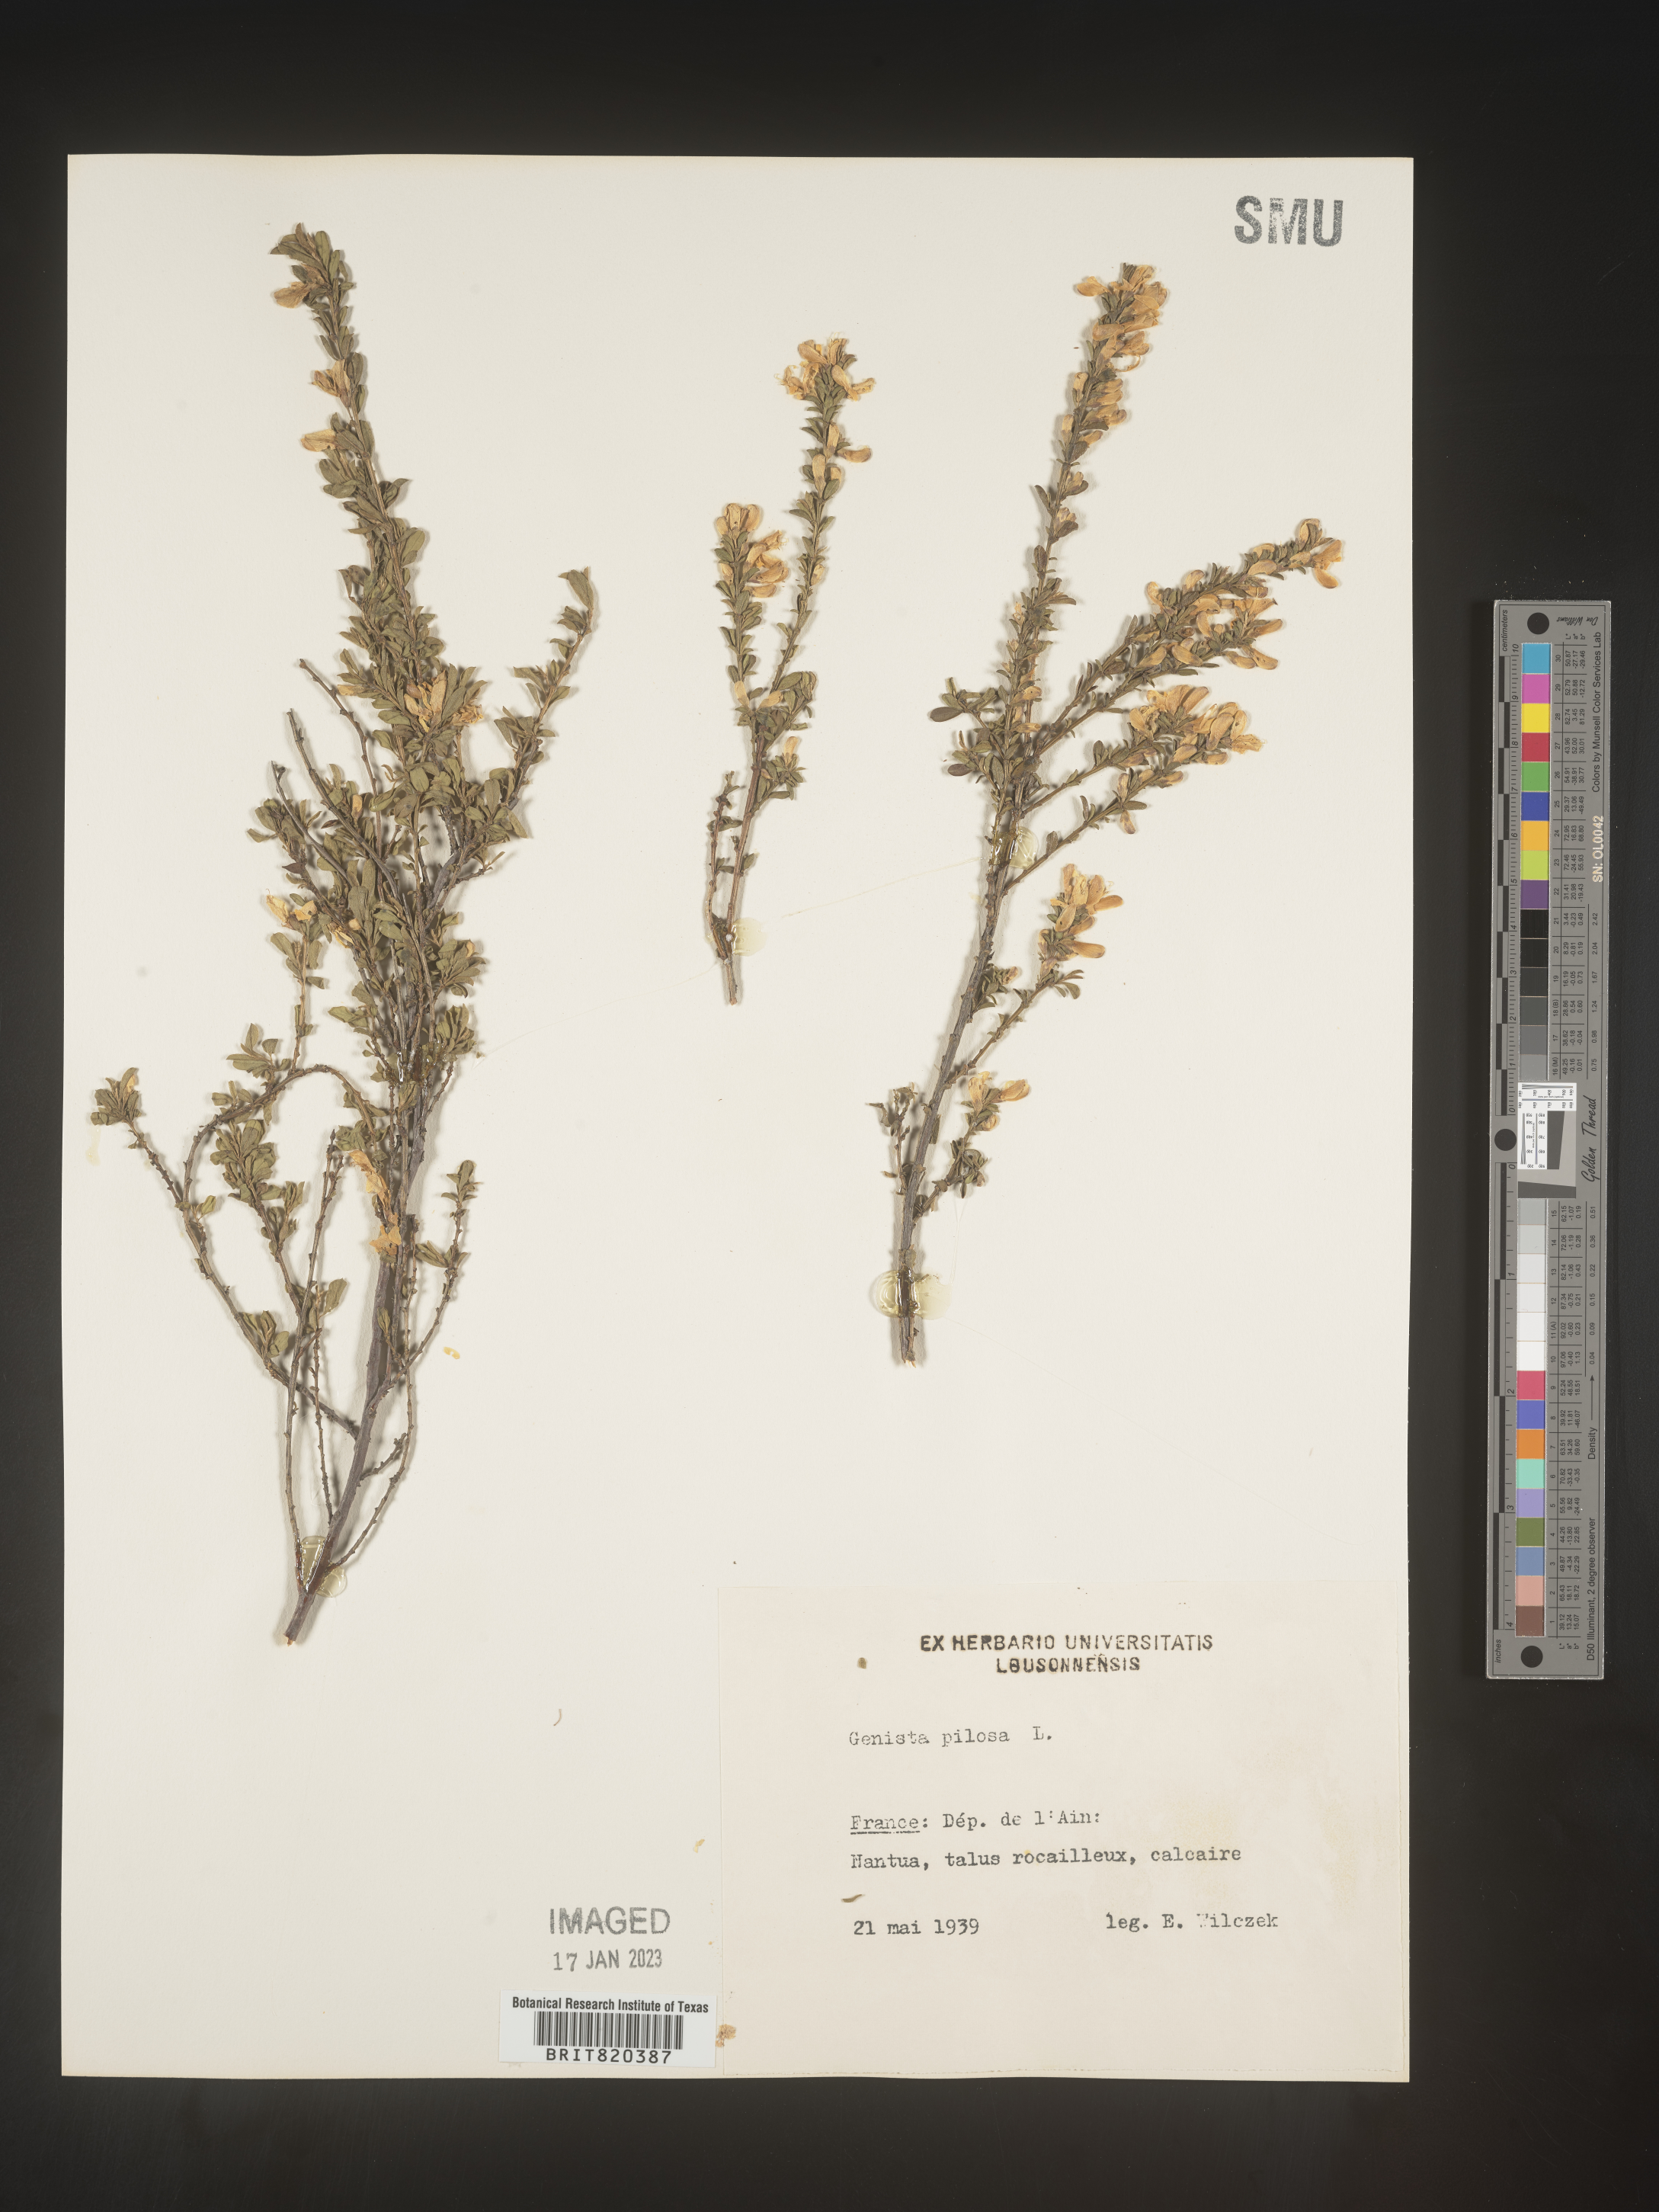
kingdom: Plantae
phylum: Tracheophyta
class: Magnoliopsida
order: Fabales
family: Fabaceae
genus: Genista
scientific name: Genista
